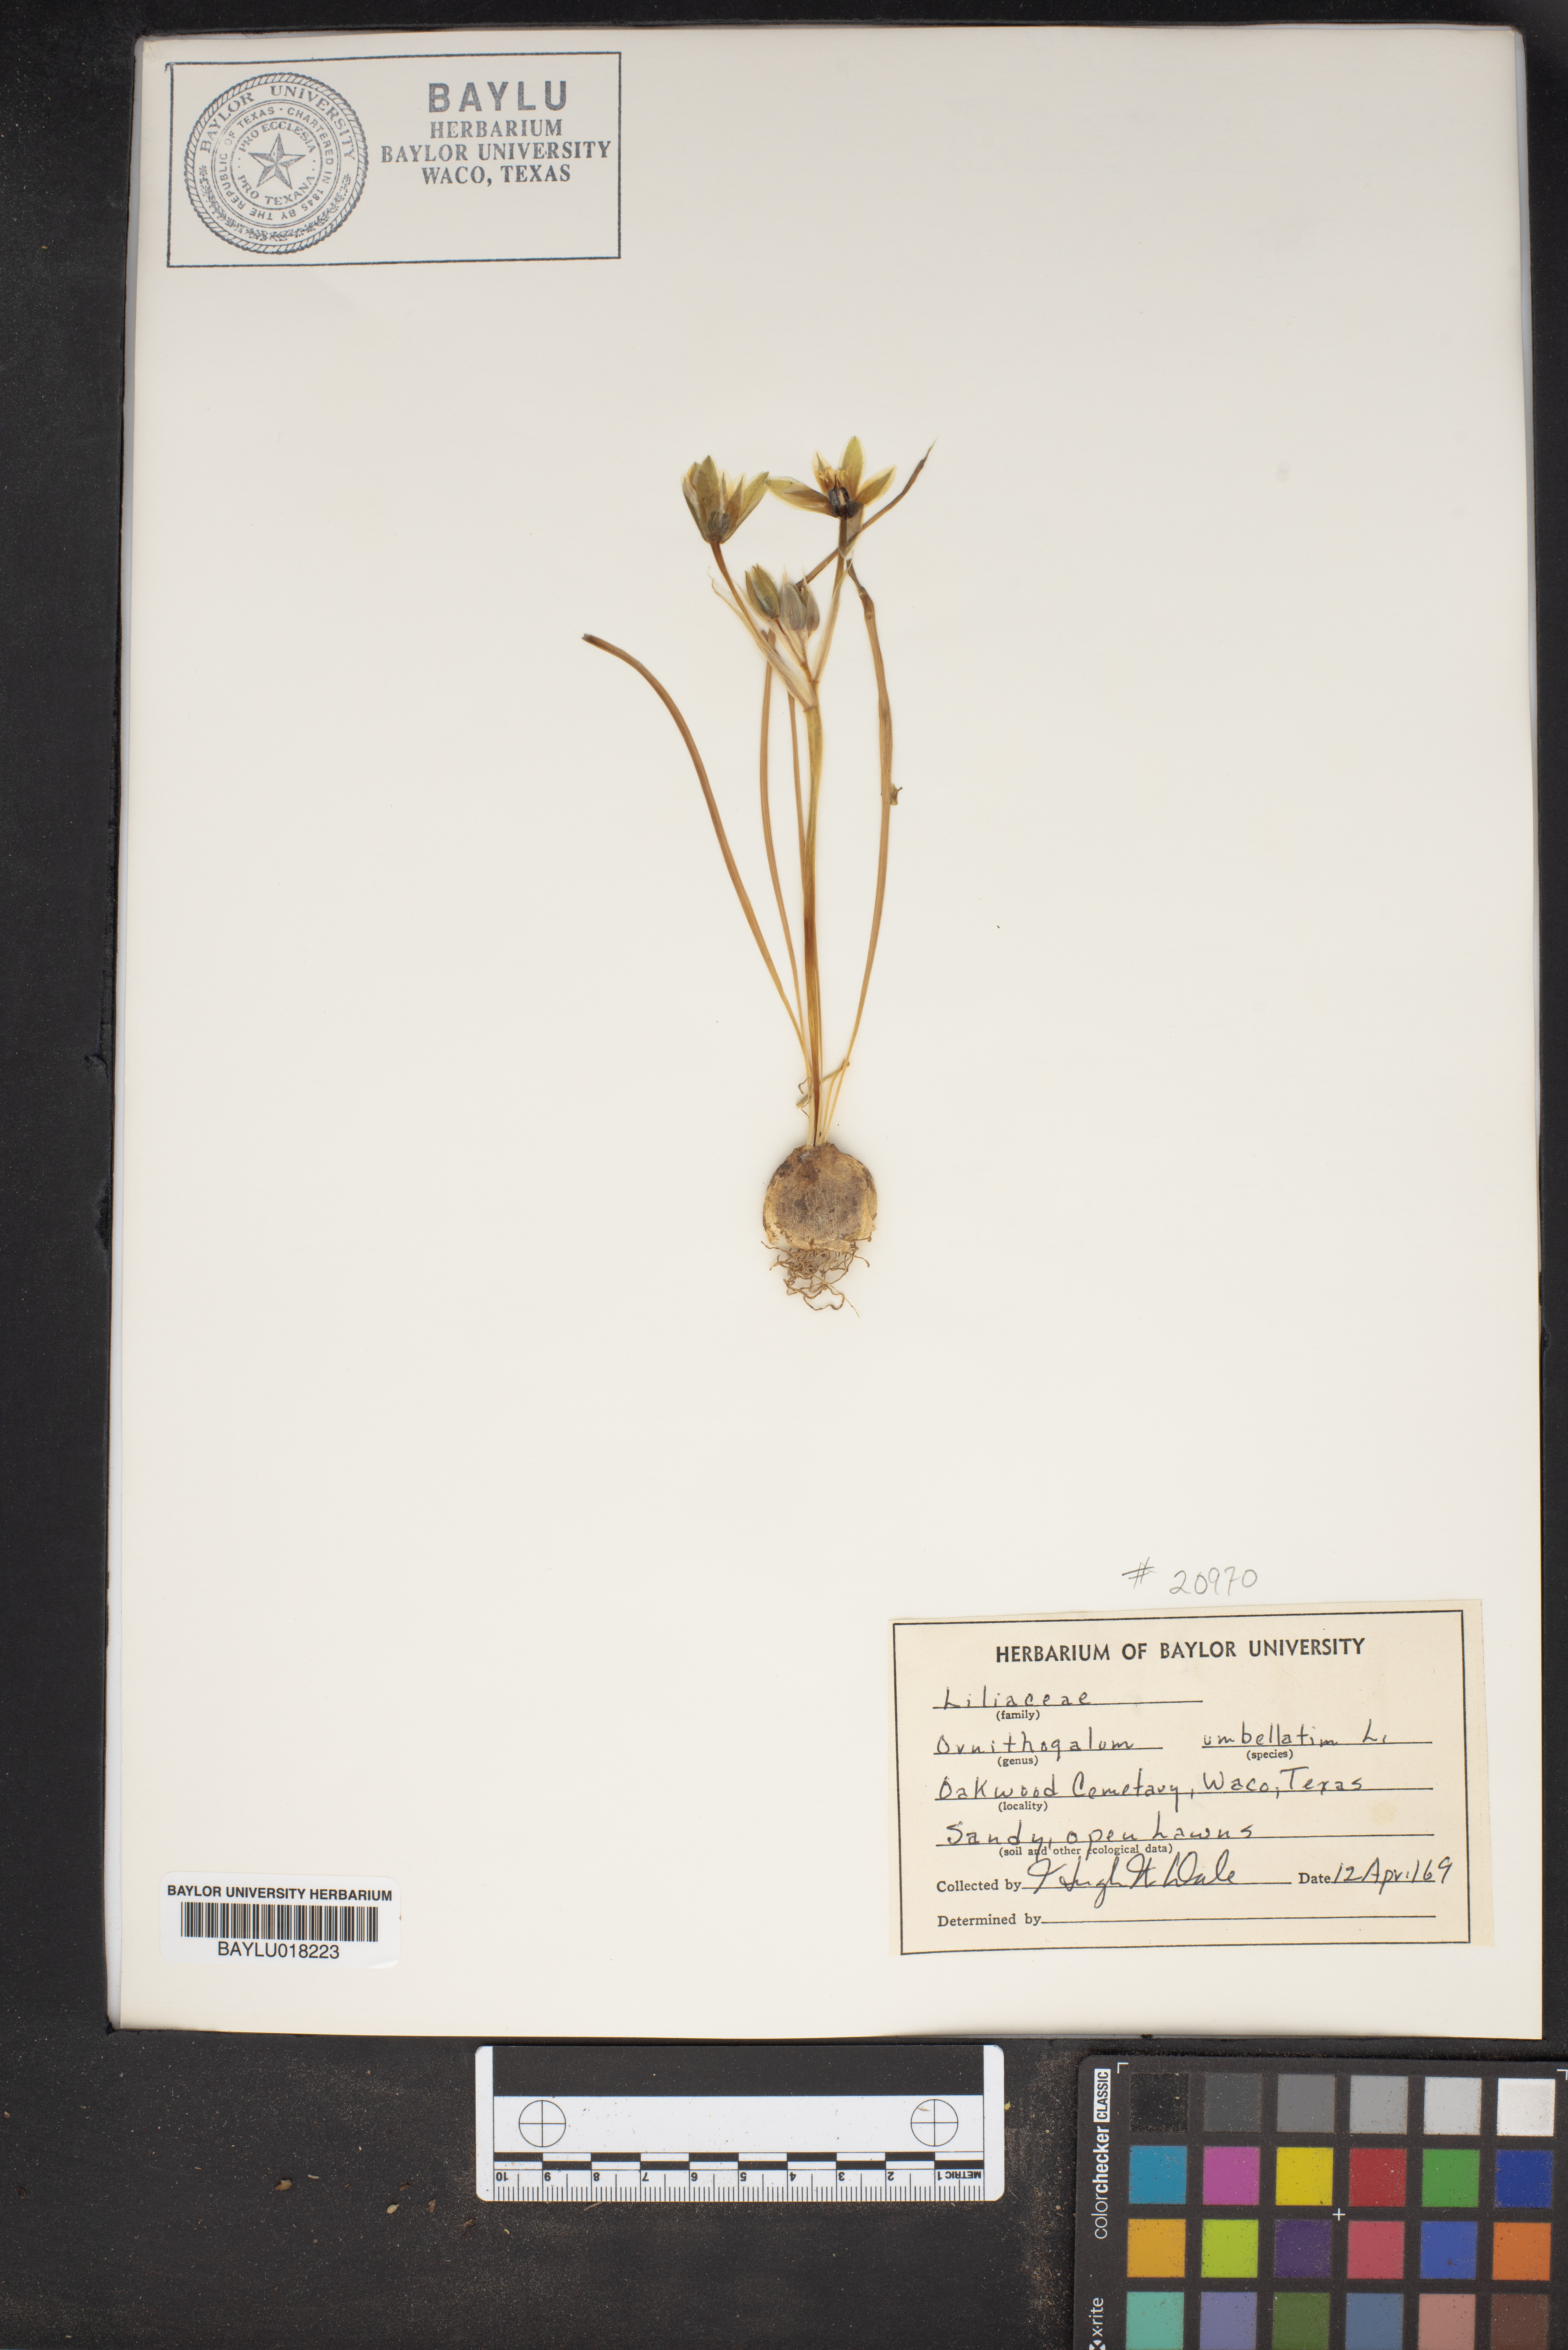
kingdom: Plantae
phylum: Tracheophyta
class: Liliopsida
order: Asparagales
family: Asparagaceae
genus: Ornithogalum
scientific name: Ornithogalum umbellatum
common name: Garden star-of-bethlehem
